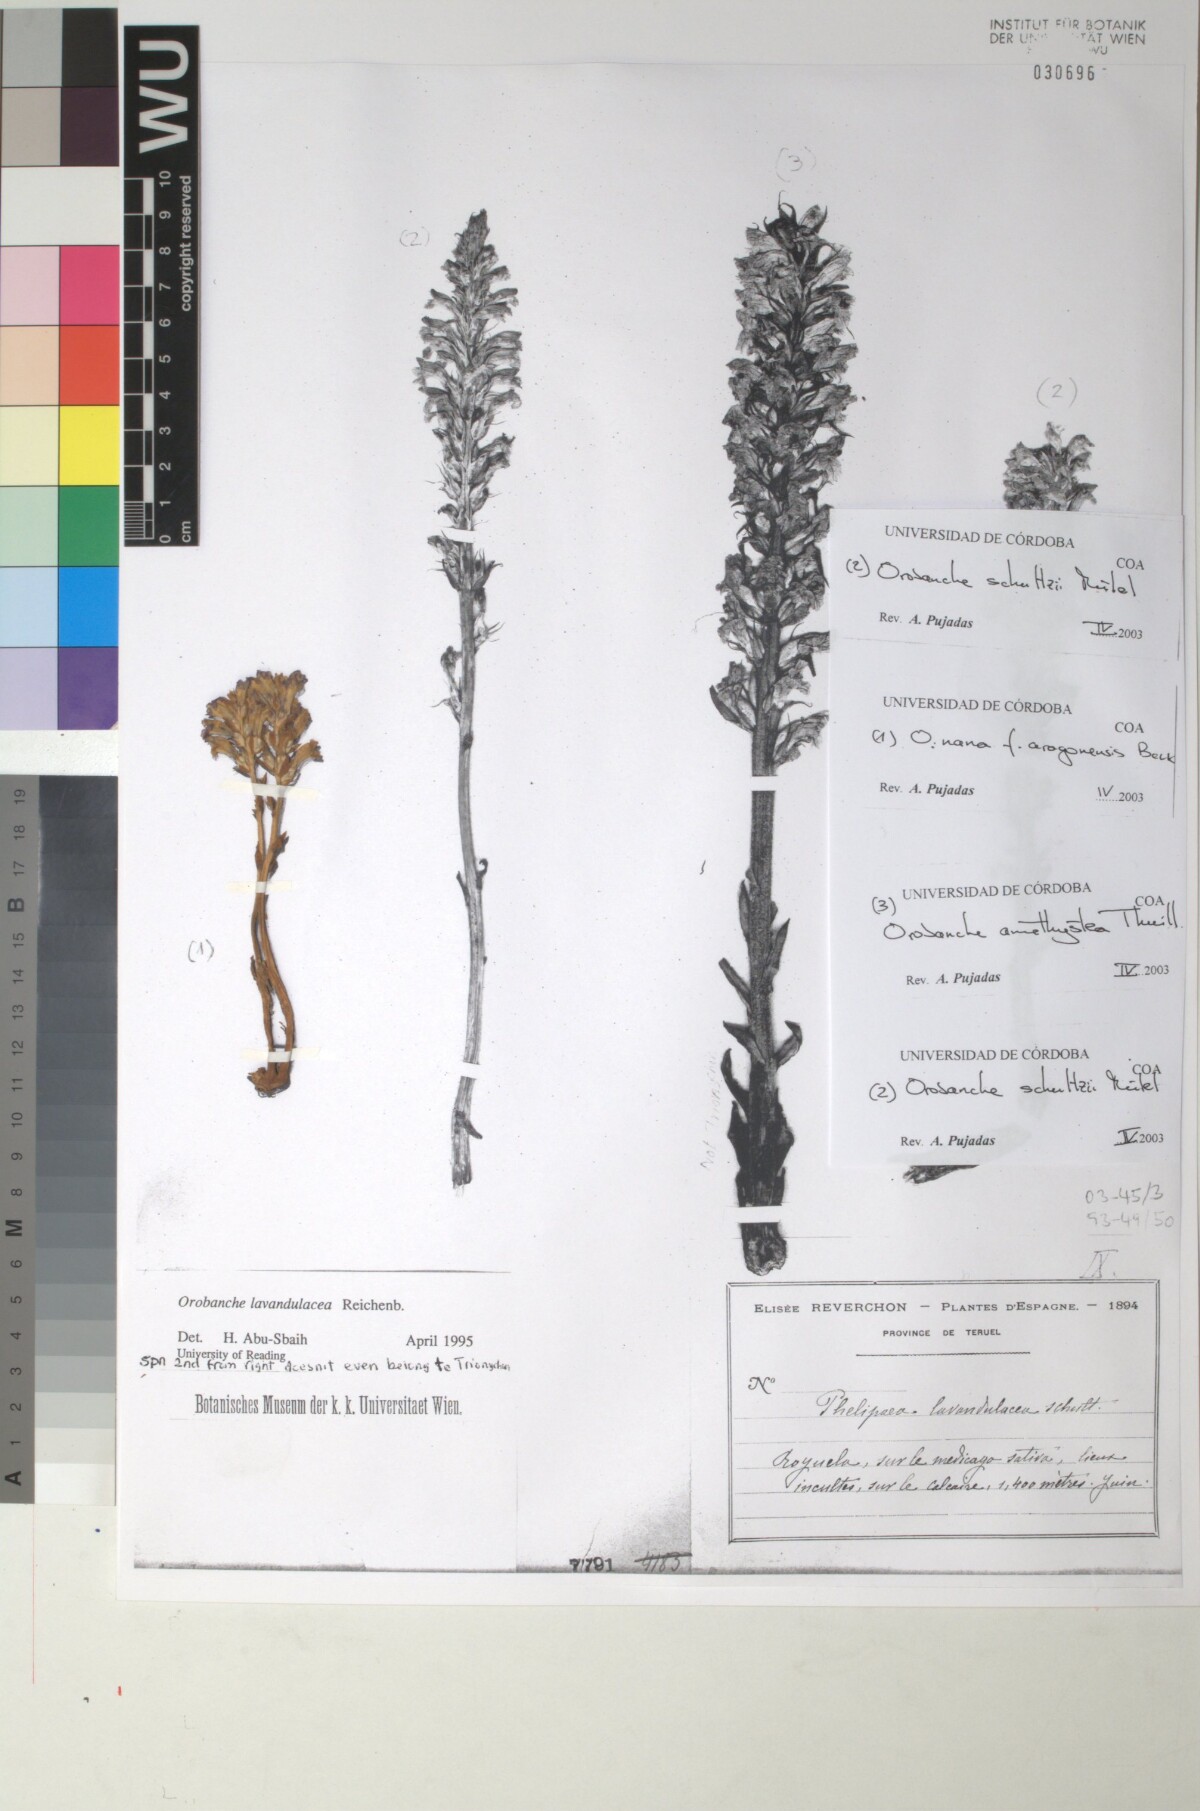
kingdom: Plantae
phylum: Tracheophyta
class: Magnoliopsida
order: Lamiales
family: Orobanchaceae
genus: Phelipanche
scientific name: Phelipanche mutelii
